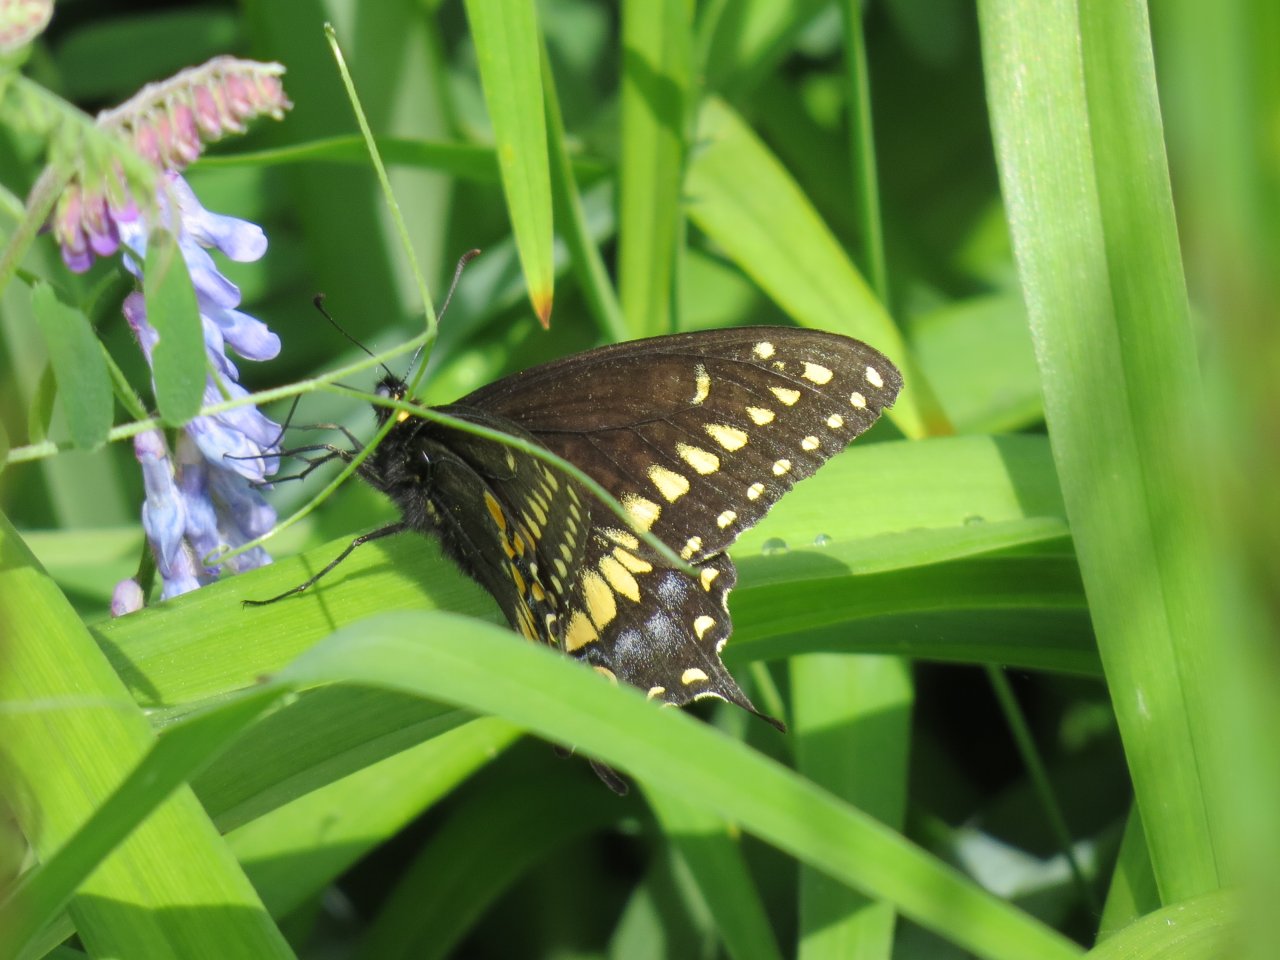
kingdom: Animalia
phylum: Arthropoda
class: Insecta
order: Lepidoptera
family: Papilionidae
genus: Papilio
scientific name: Papilio polyxenes
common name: Black Swallowtail
